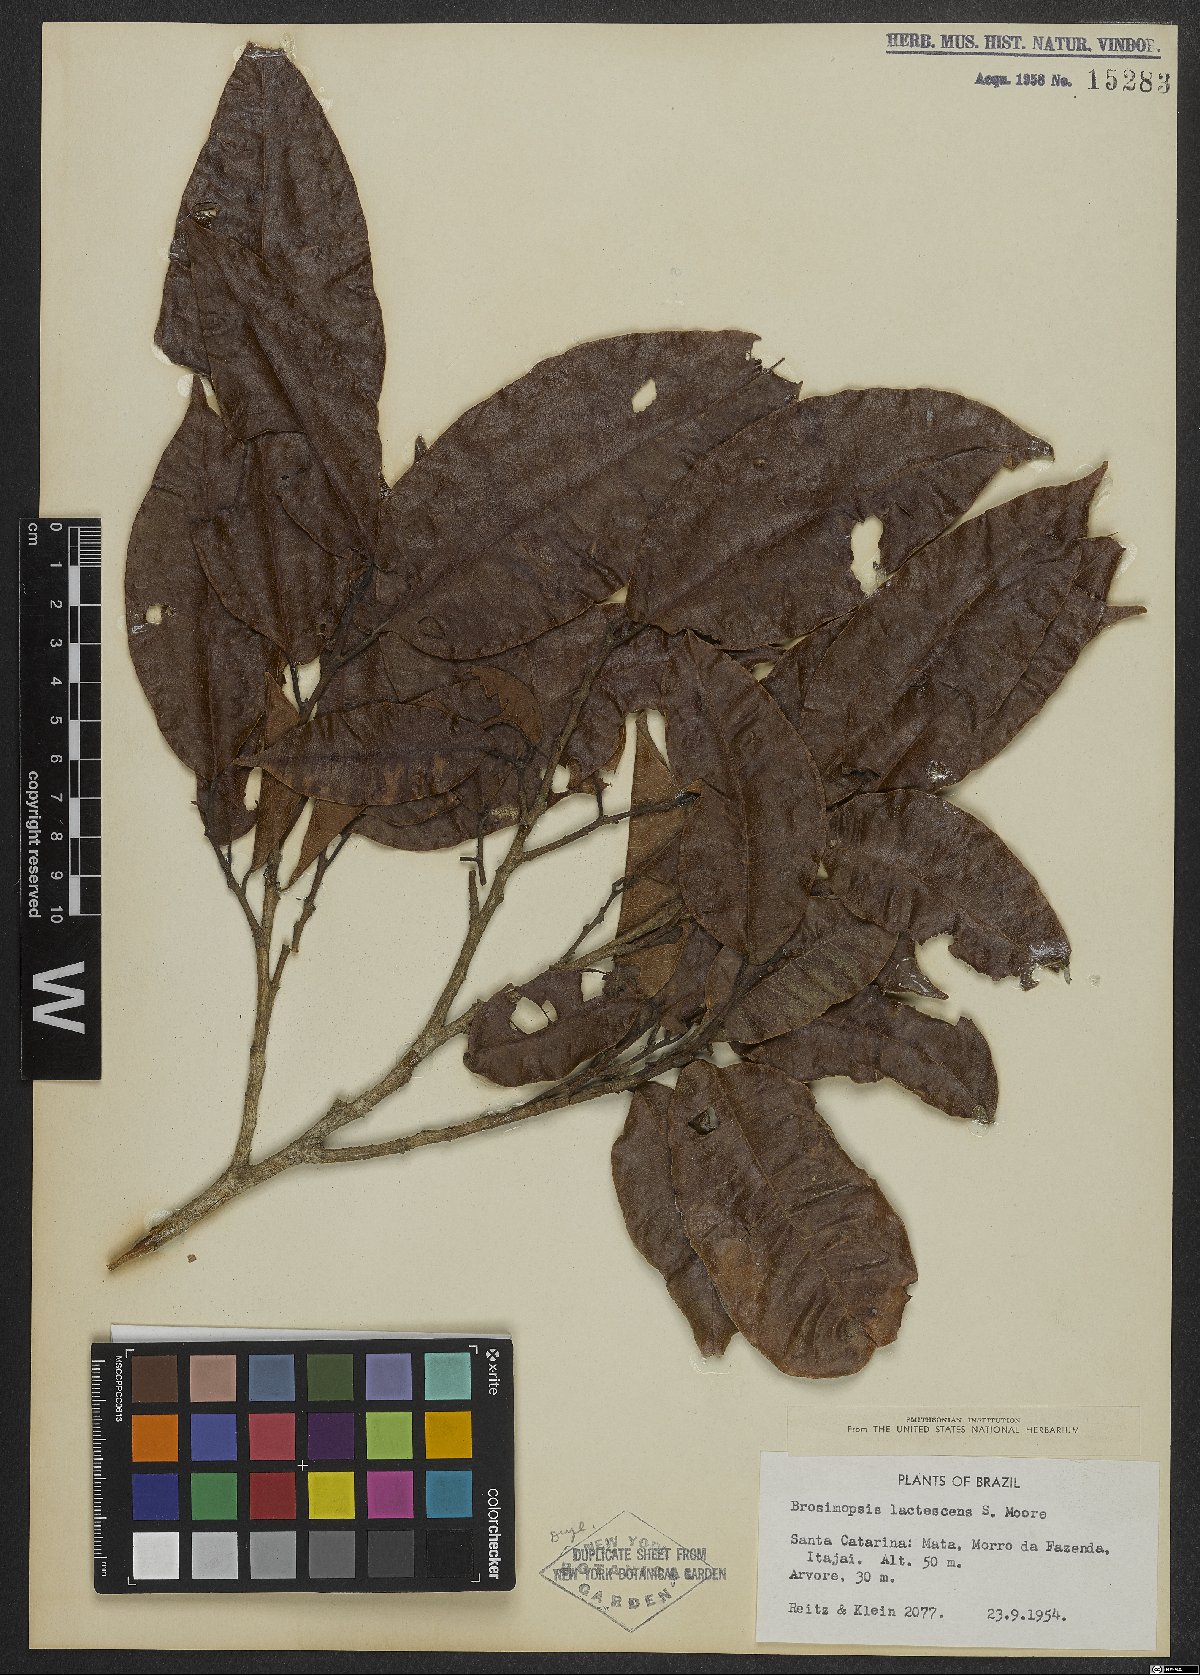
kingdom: Plantae
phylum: Tracheophyta
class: Magnoliopsida
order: Rosales
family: Moraceae
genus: Brosimum
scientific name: Brosimum lactescens
